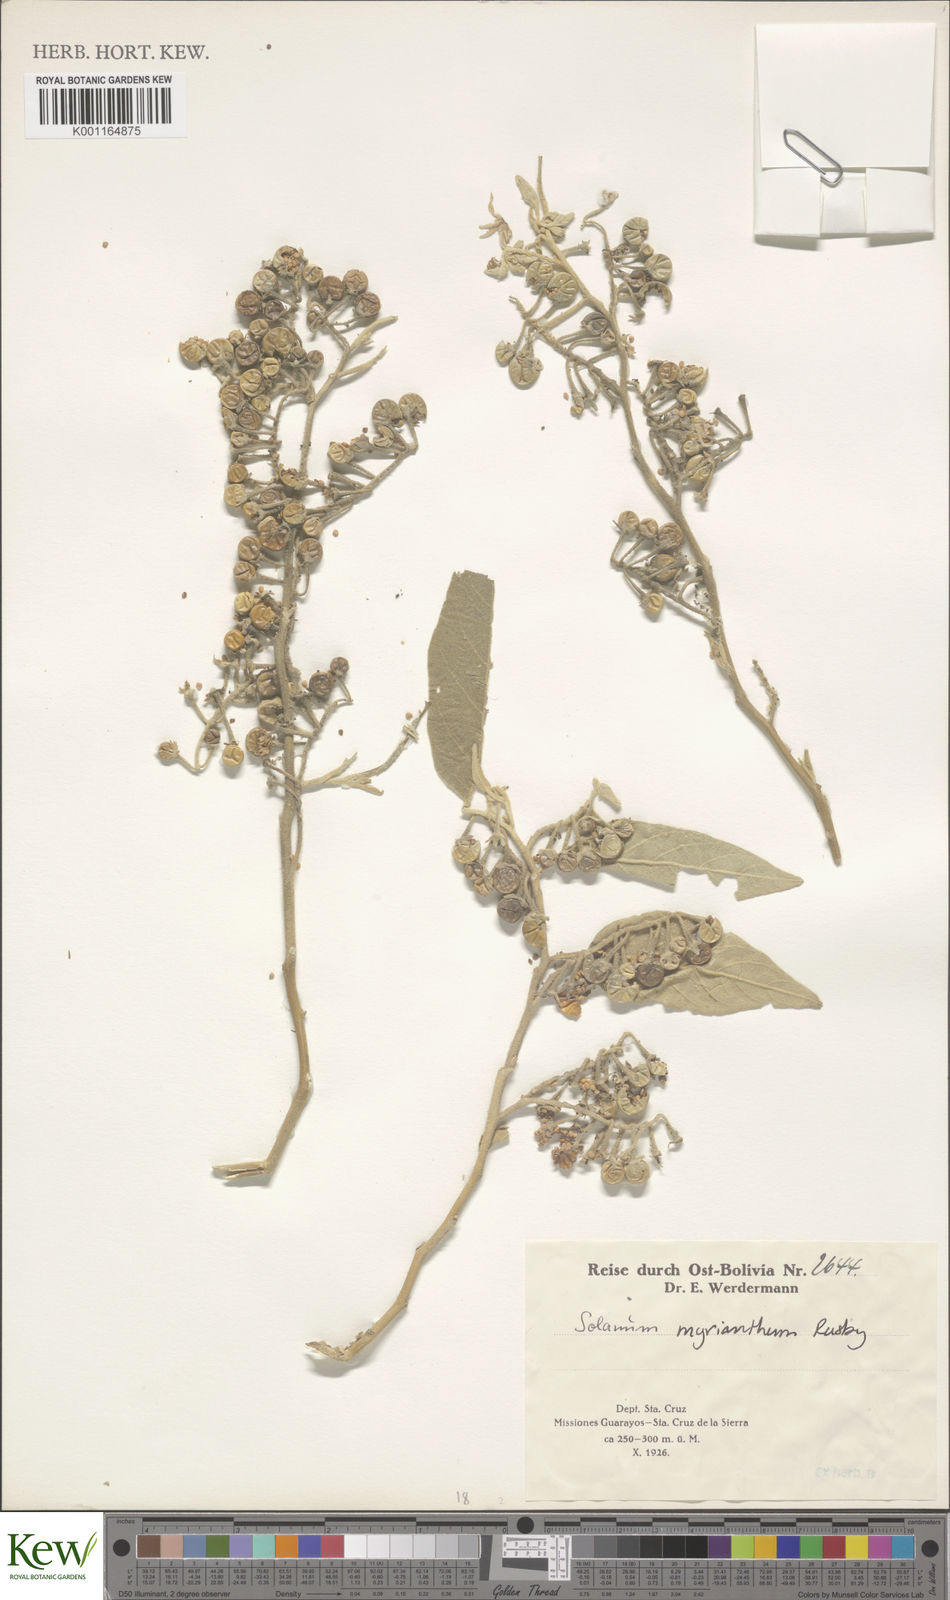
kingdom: Plantae
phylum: Tracheophyta
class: Magnoliopsida
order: Solanales
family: Solanaceae
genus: Solanum
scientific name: Solanum myriacanthum
